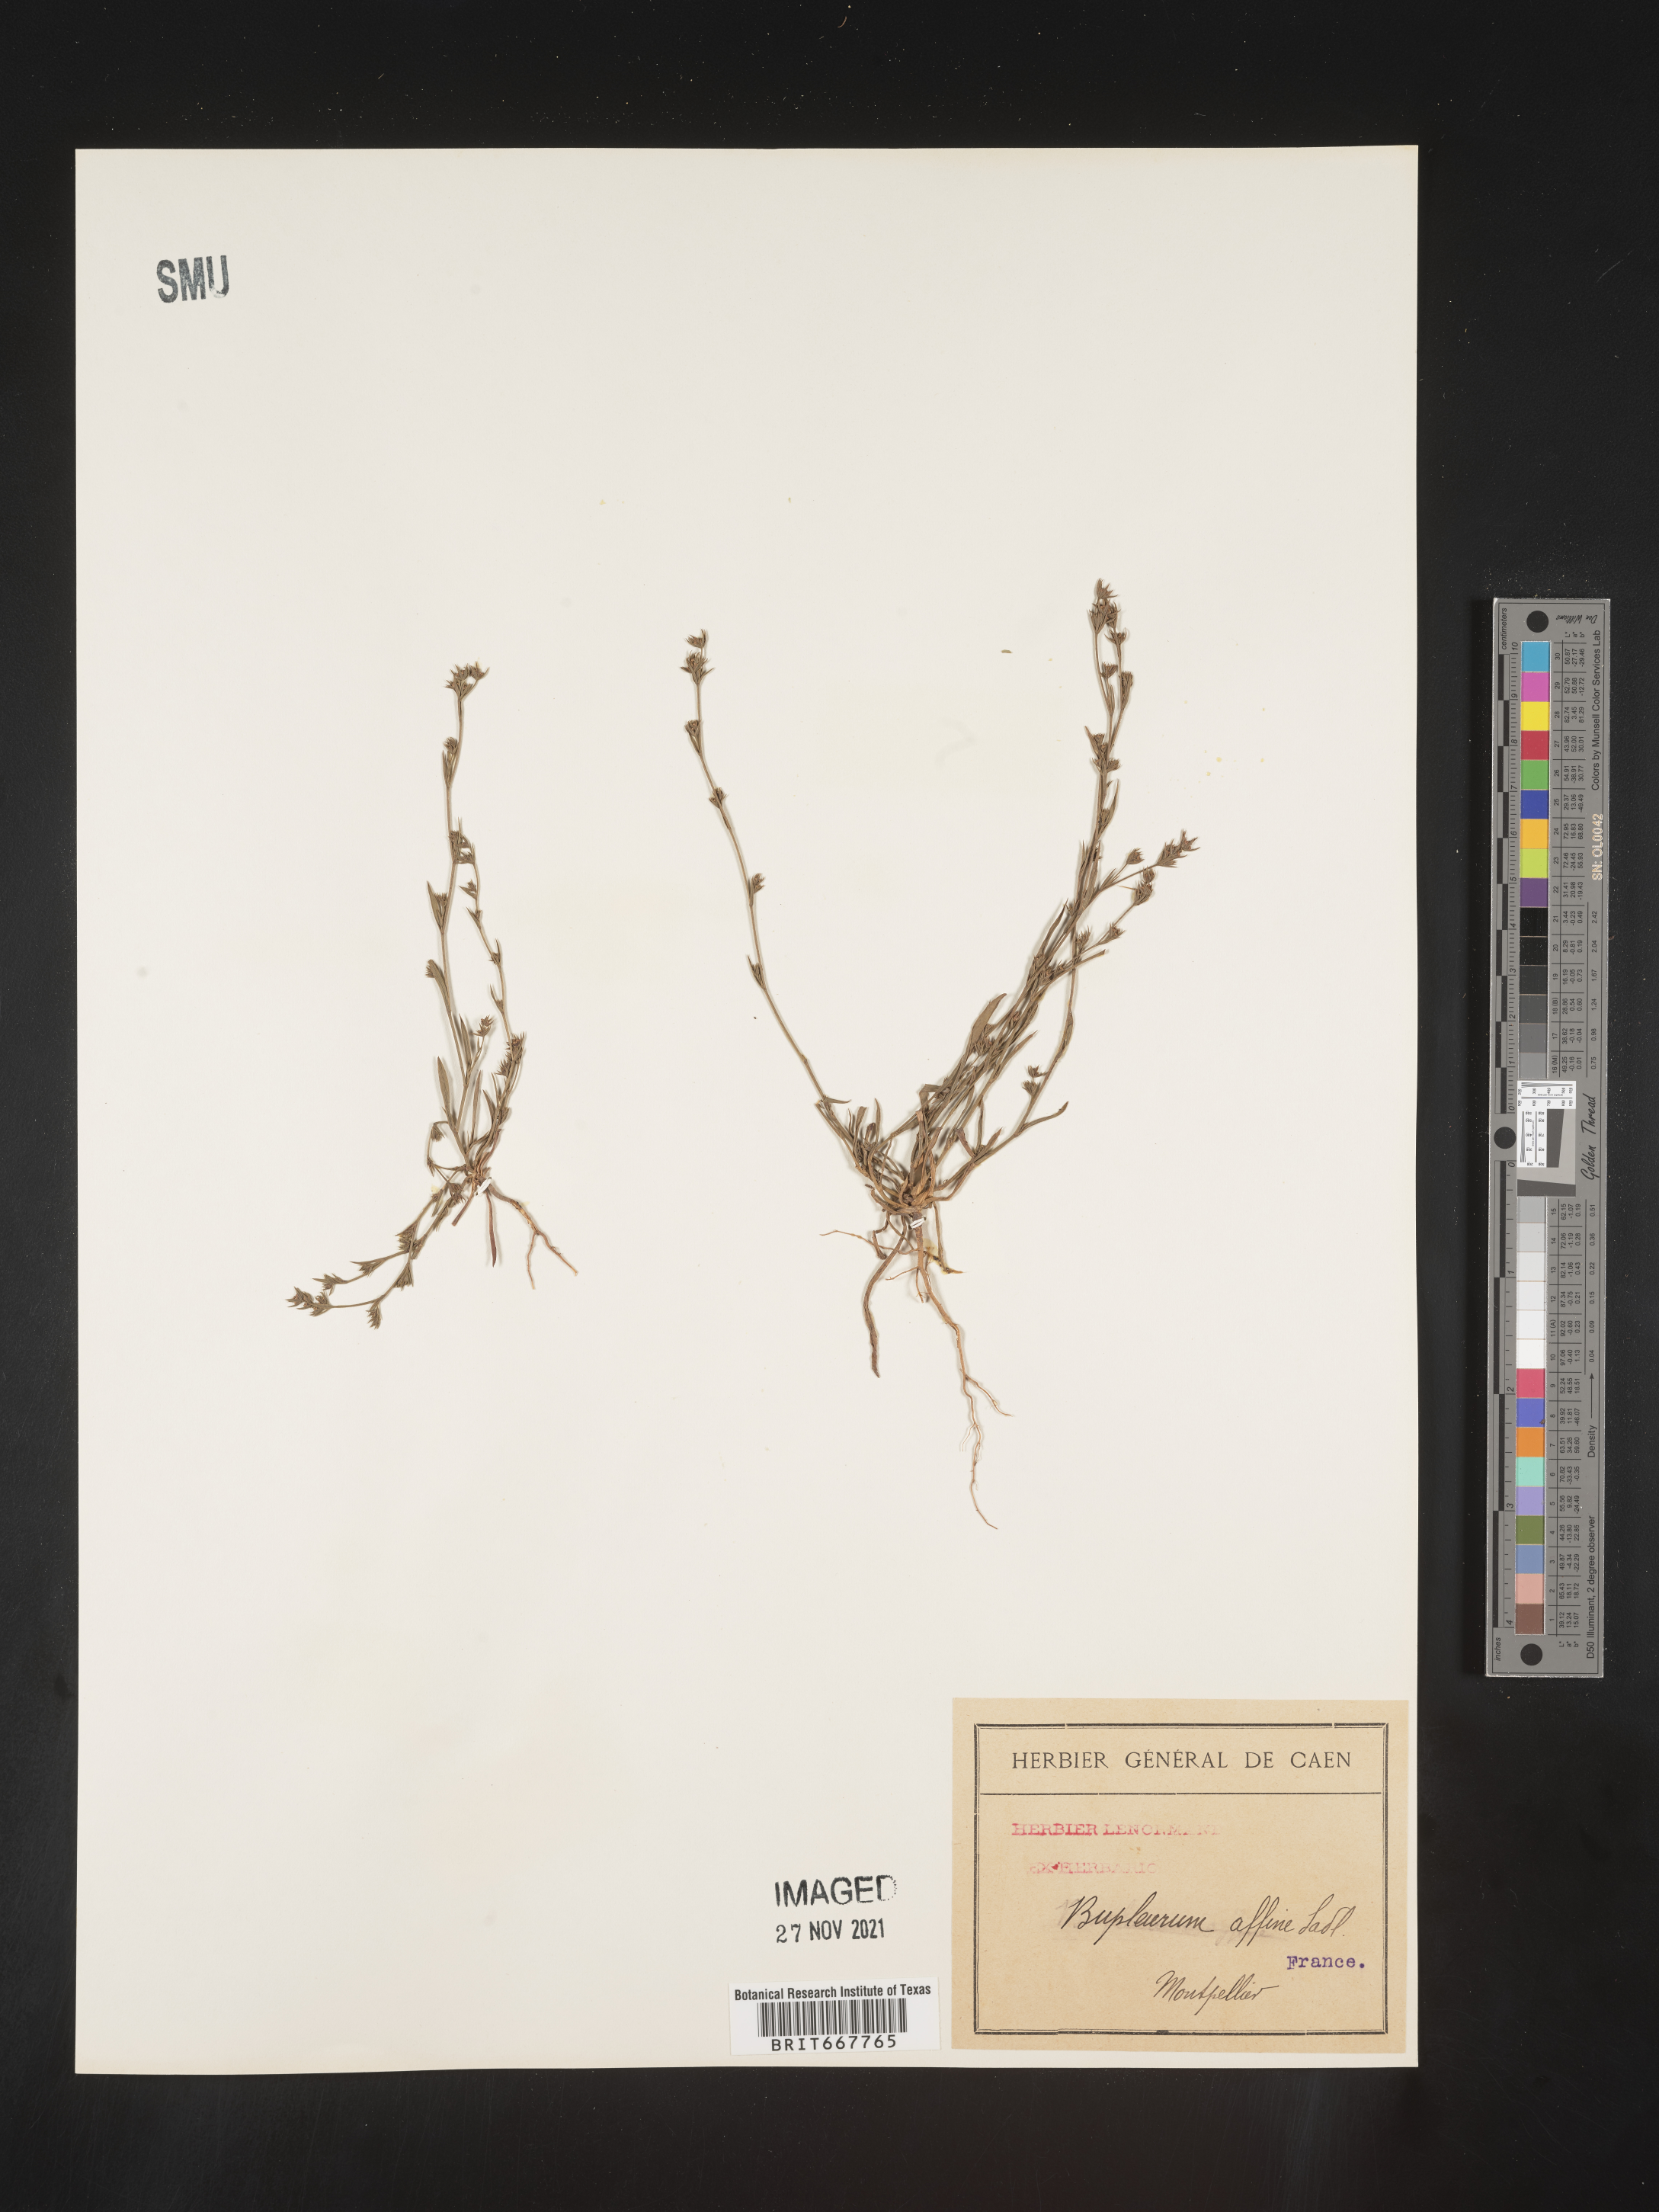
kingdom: Plantae
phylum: Tracheophyta
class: Magnoliopsida
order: Apiales
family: Apiaceae
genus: Bupleurum
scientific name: Bupleurum
